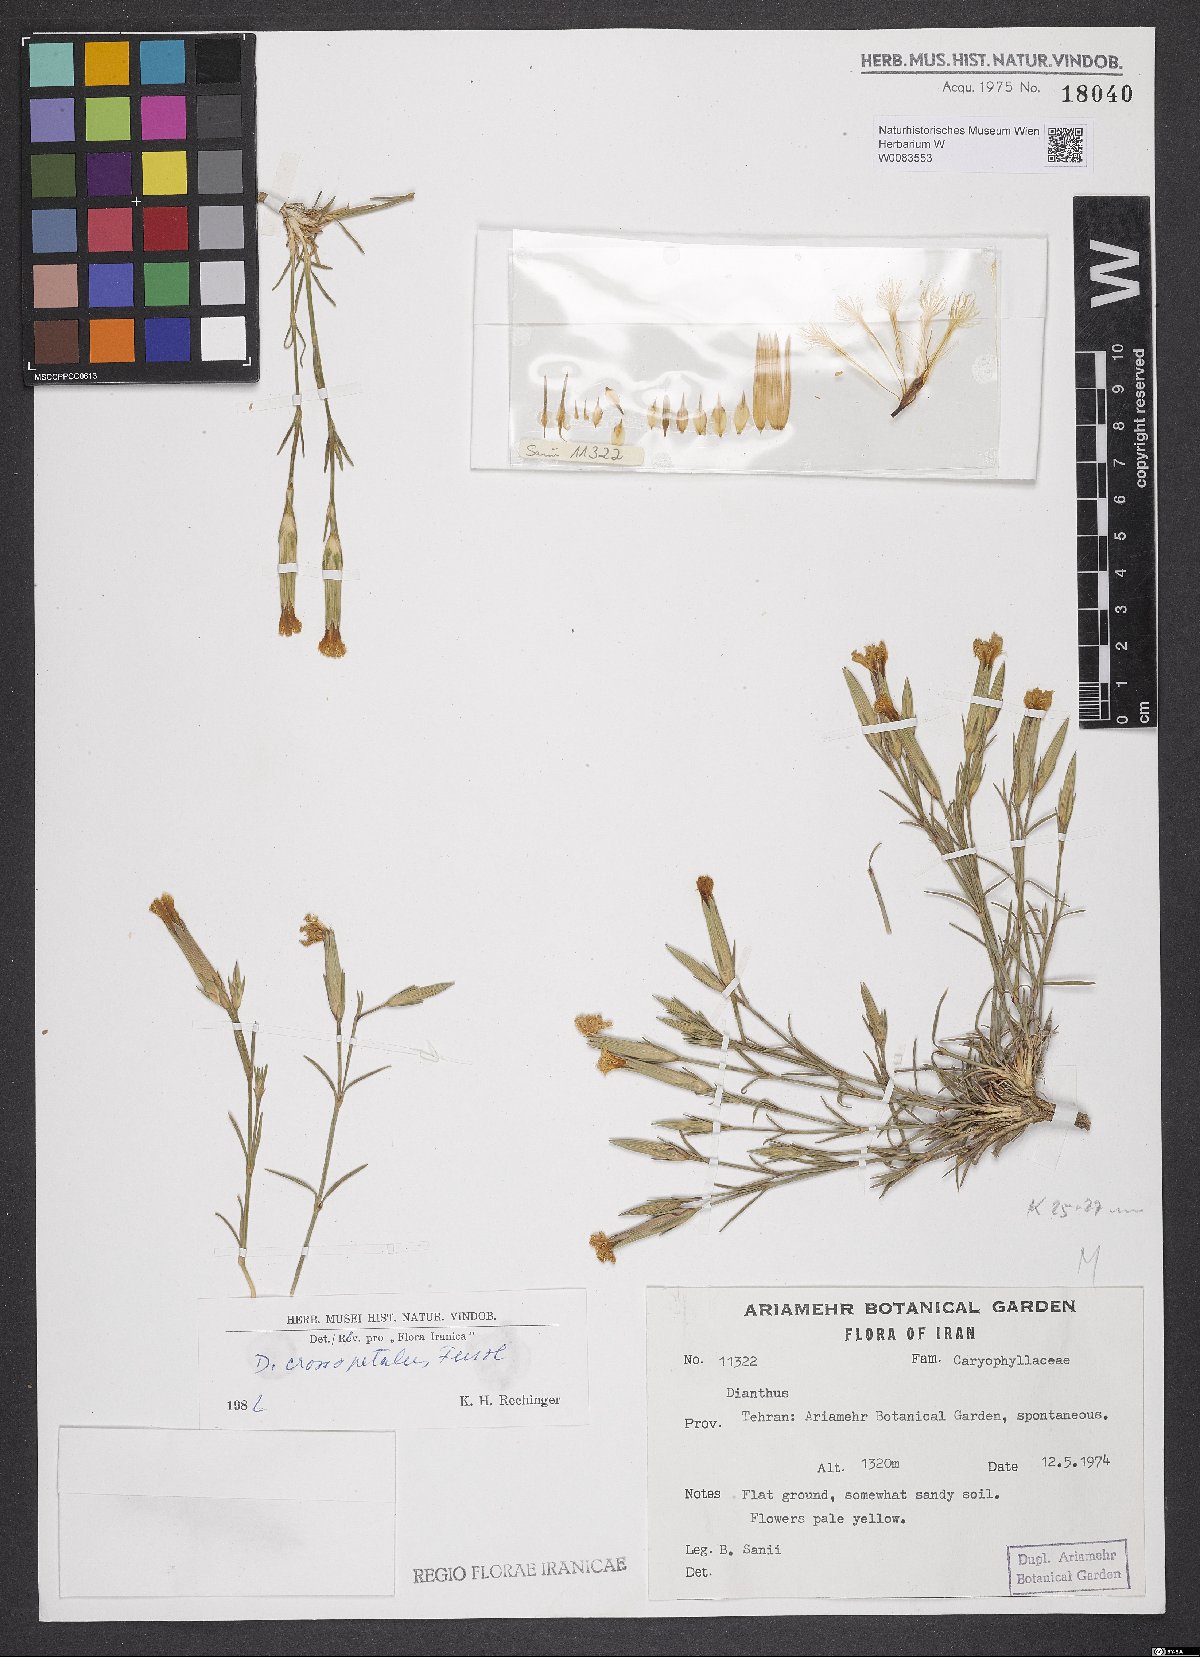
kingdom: Plantae
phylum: Tracheophyta
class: Magnoliopsida
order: Caryophyllales
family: Caryophyllaceae
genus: Dianthus
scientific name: Dianthus crossopetalus
